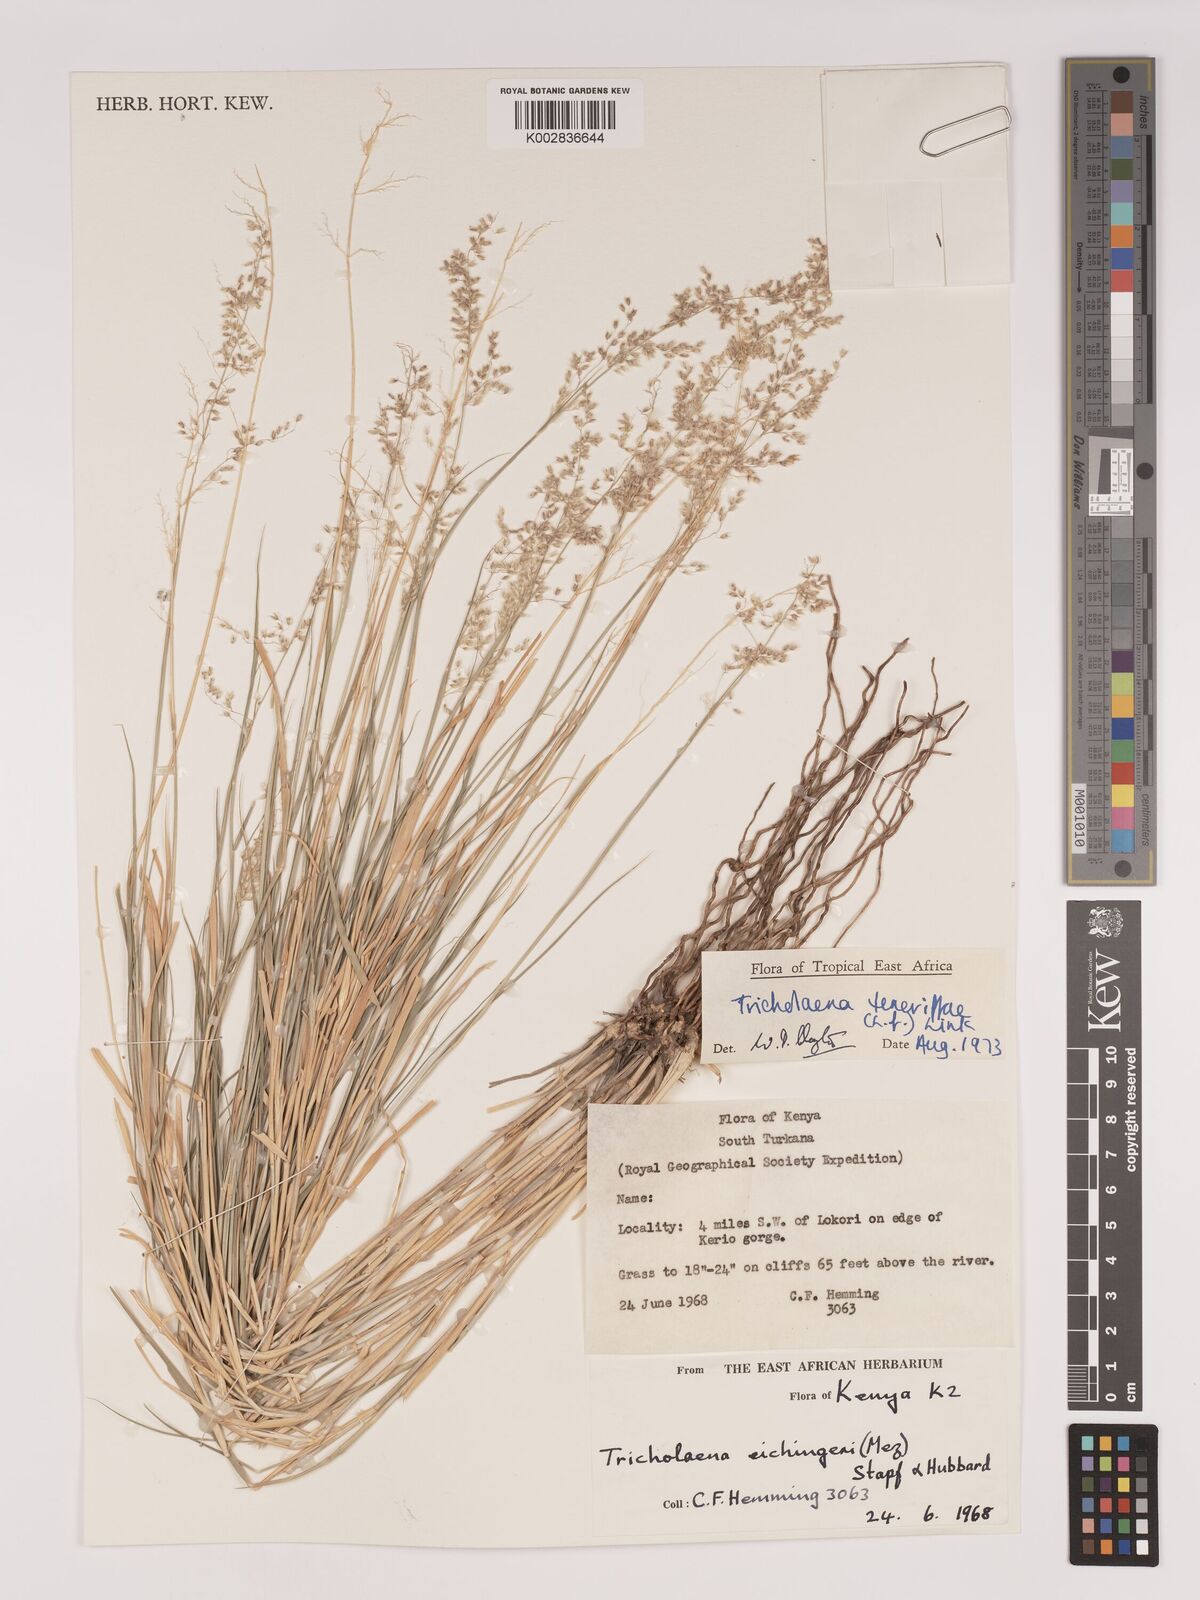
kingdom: Plantae
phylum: Tracheophyta
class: Liliopsida
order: Poales
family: Poaceae
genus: Tricholaena
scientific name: Tricholaena teneriffae
